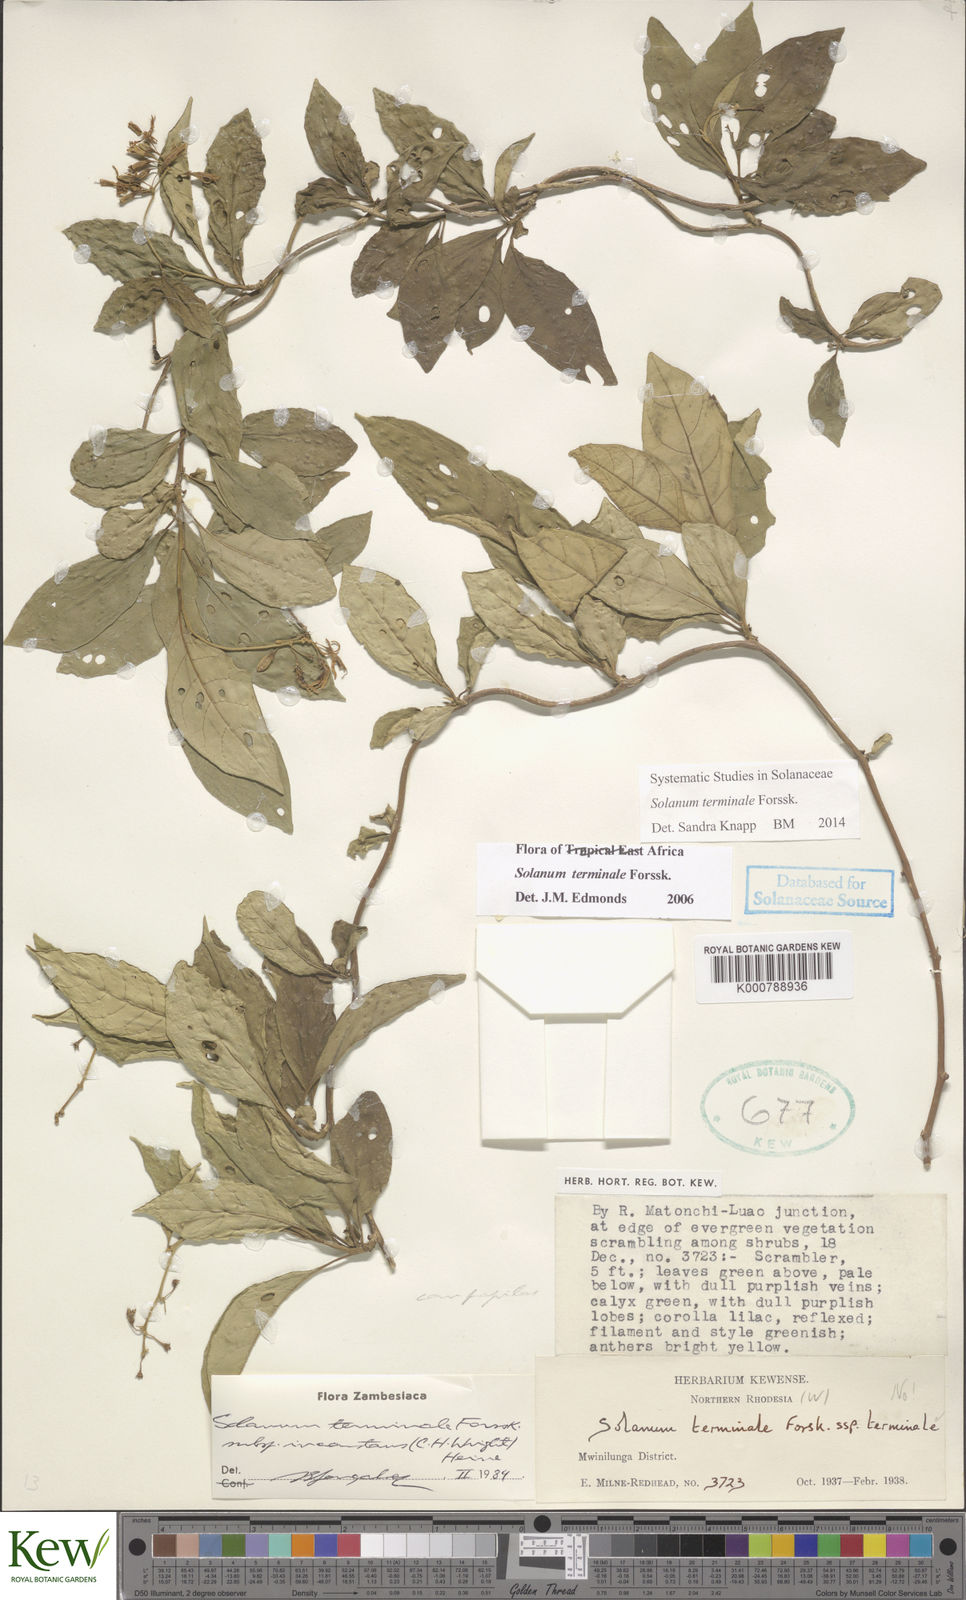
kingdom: Plantae
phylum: Tracheophyta
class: Magnoliopsida
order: Solanales
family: Solanaceae
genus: Solanum
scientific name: Solanum terminale
